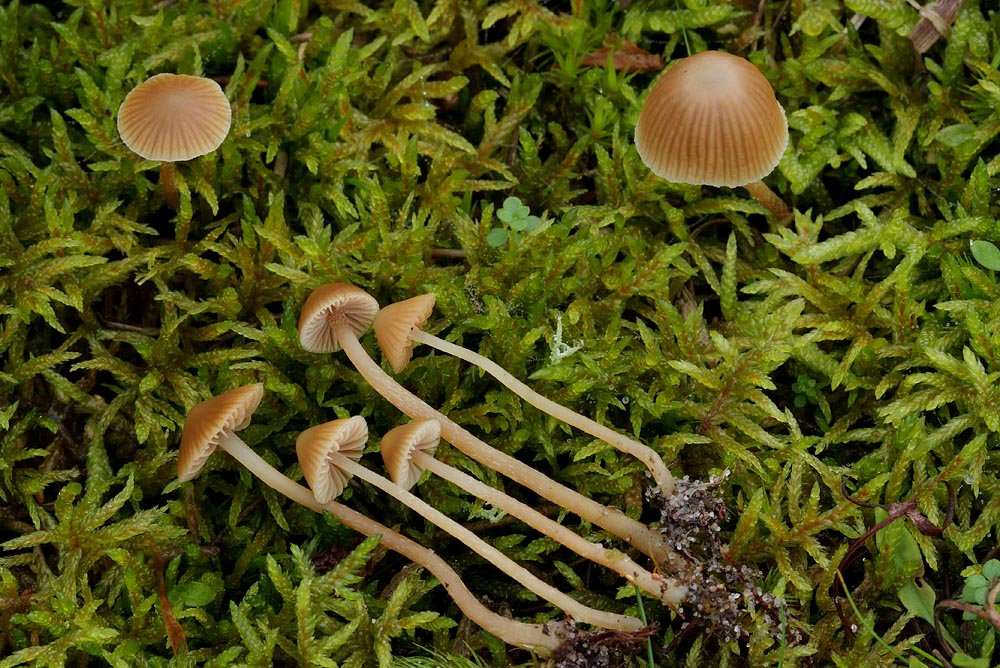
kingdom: Fungi
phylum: Basidiomycota
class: Agaricomycetes
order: Agaricales
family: Hymenogastraceae
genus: Galerina
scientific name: Galerina mniophila
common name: olivengul hjelmhat
